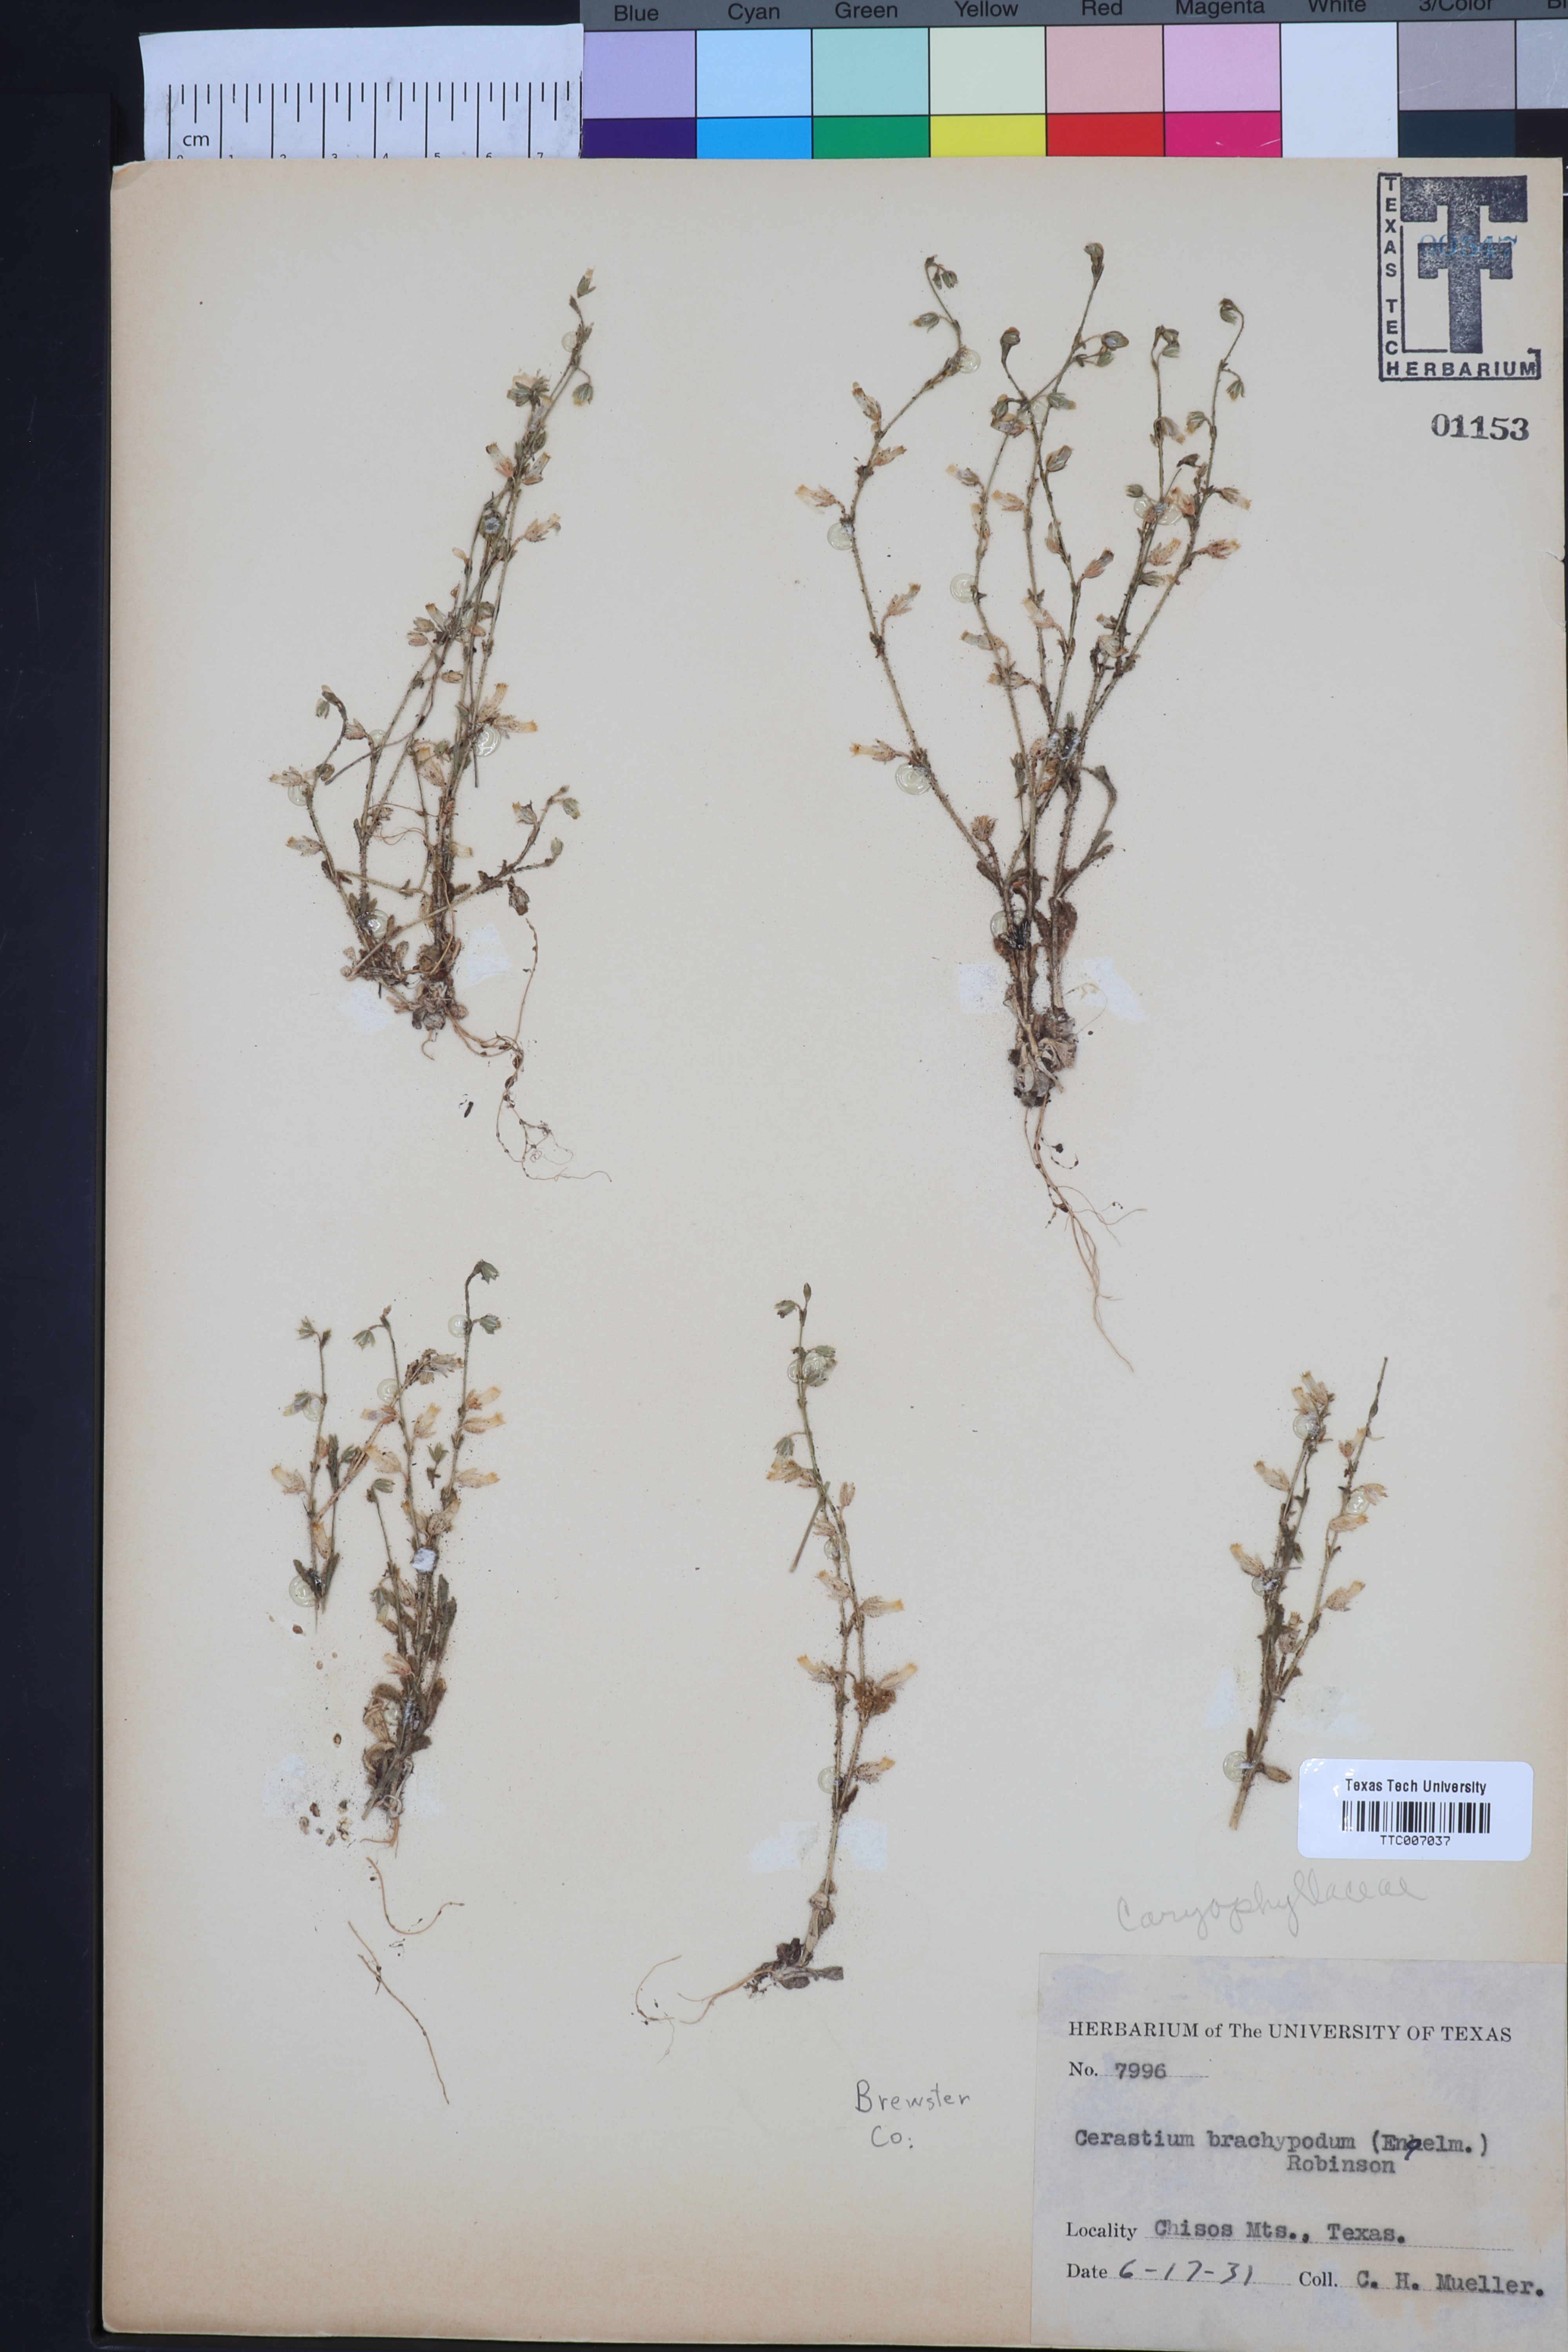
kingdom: Plantae
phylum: Tracheophyta
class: Magnoliopsida
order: Caryophyllales
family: Caryophyllaceae
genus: Cerastium
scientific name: Cerastium brachypodum
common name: Short-pedicelled nodding chickweed
